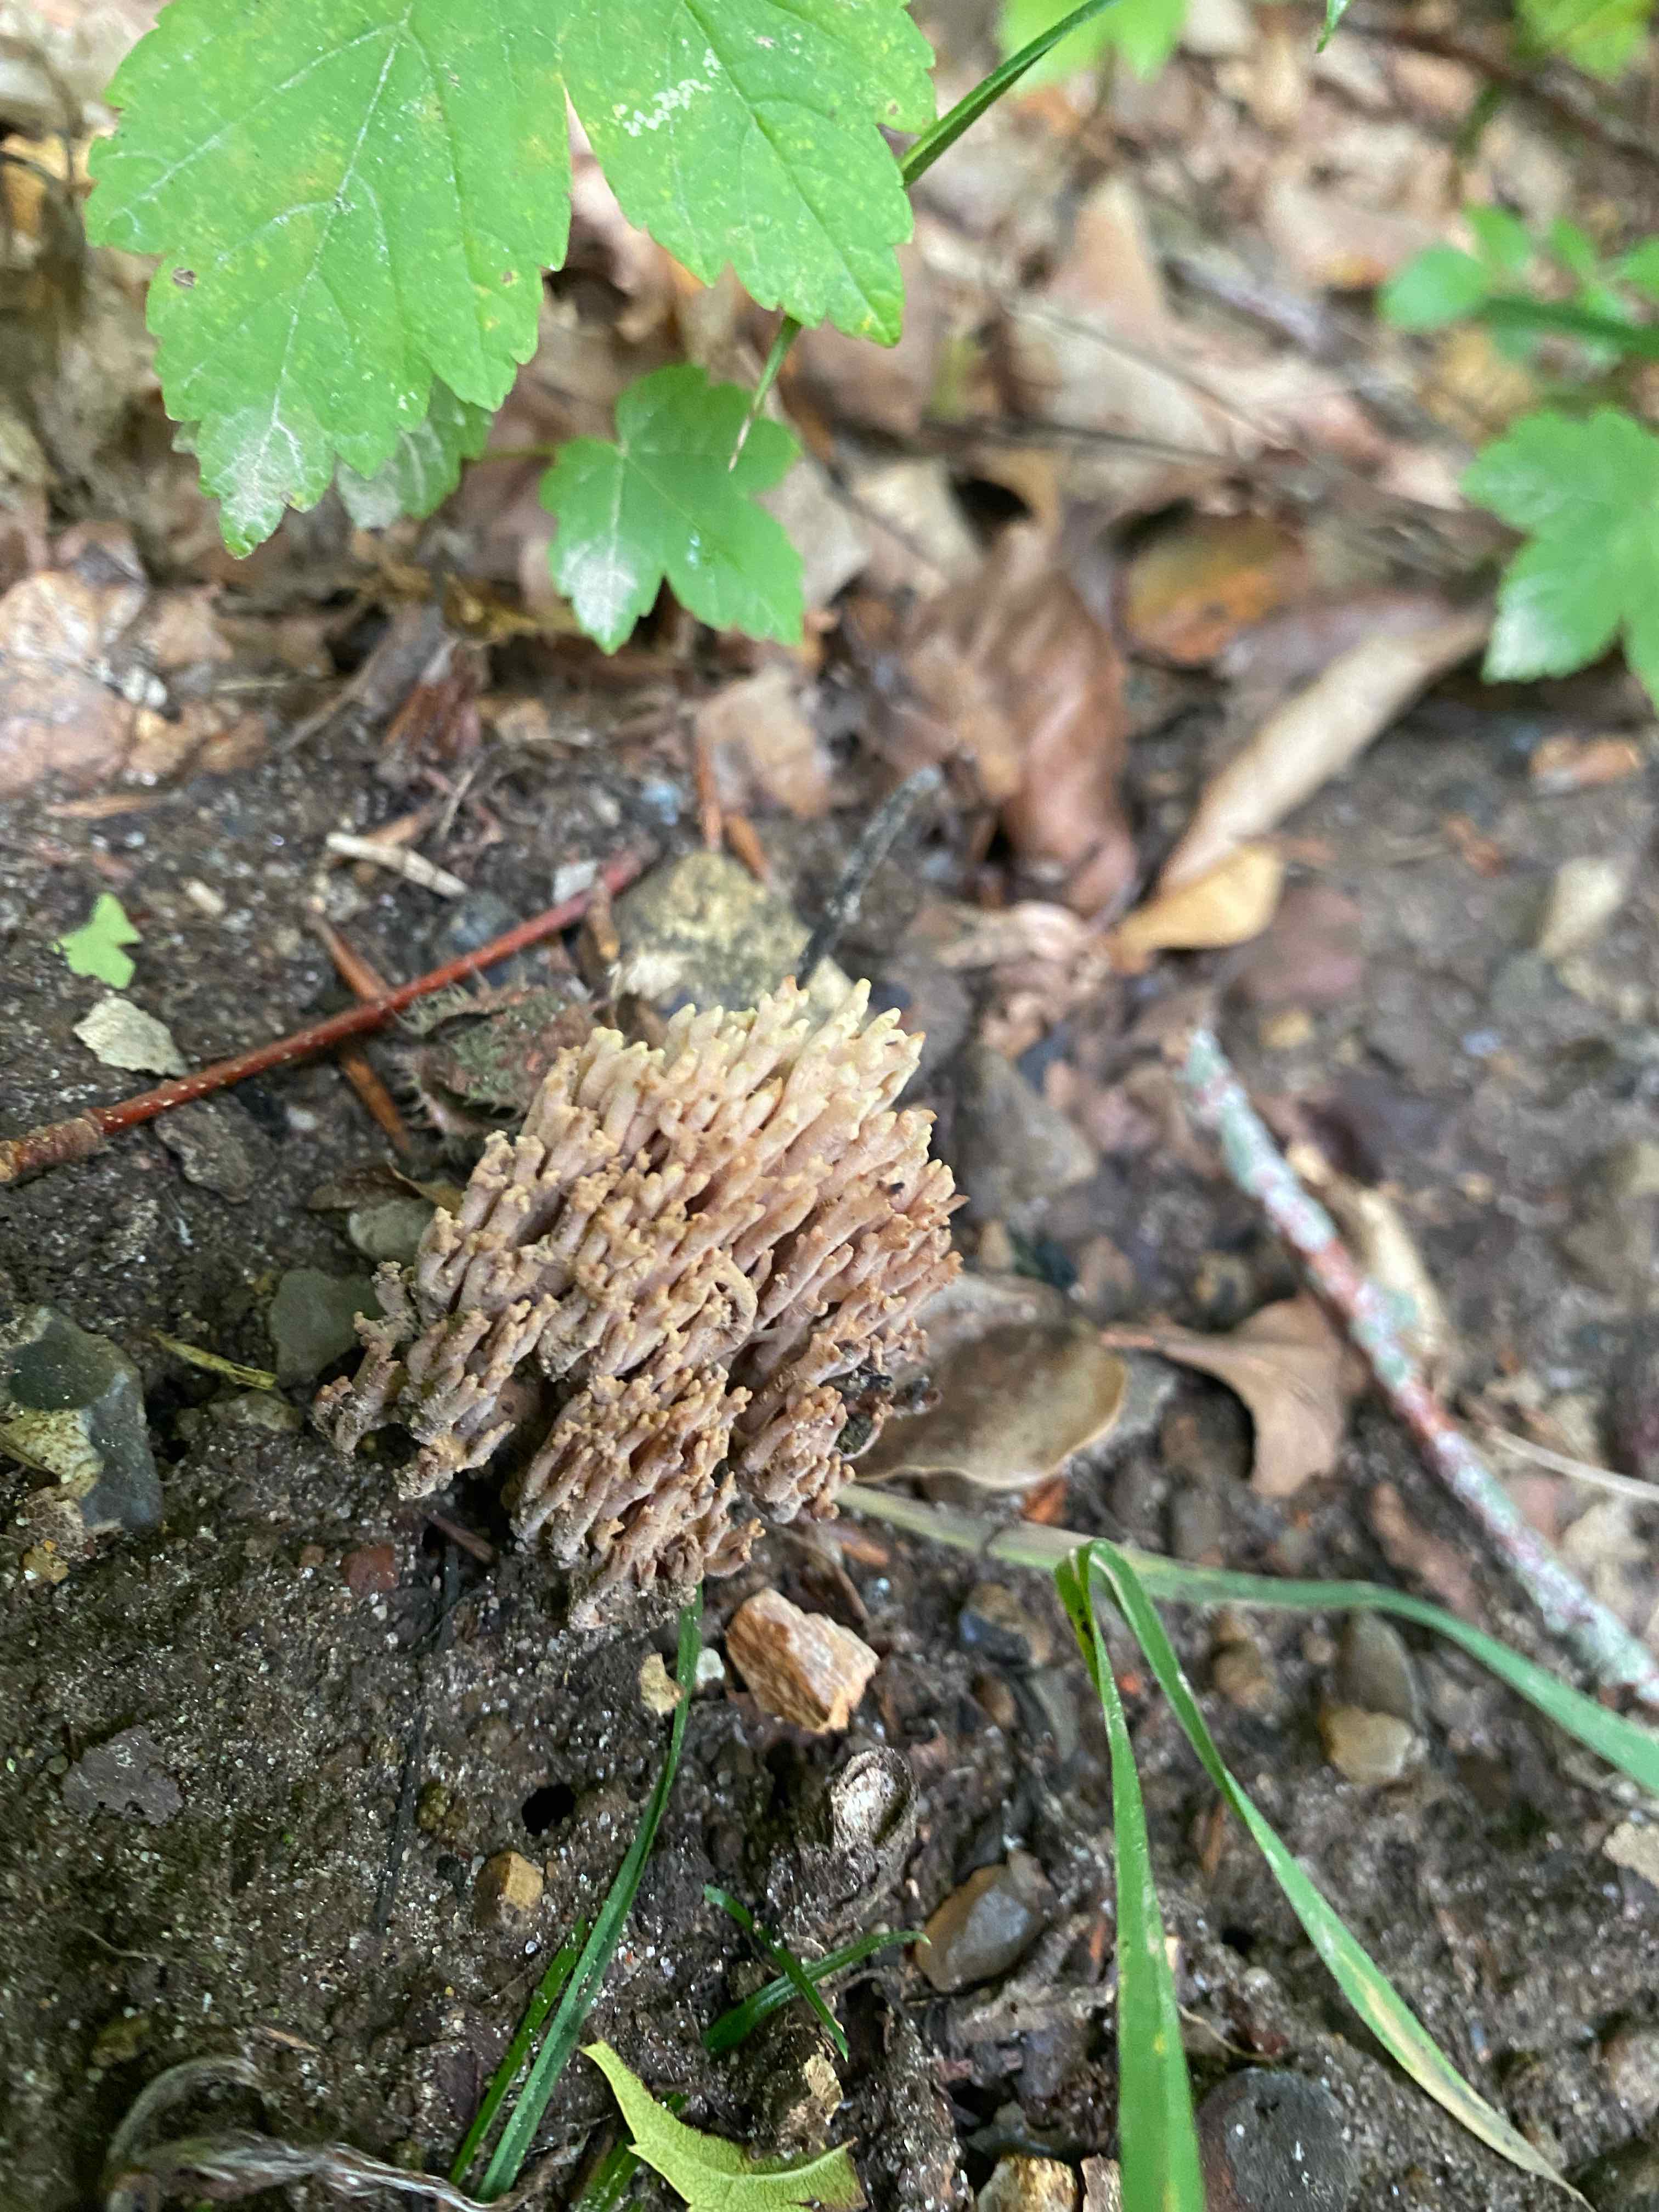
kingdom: Fungi
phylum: Basidiomycota
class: Agaricomycetes
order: Gomphales
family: Gomphaceae
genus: Ramaria
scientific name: Ramaria stricta
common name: rank koralsvamp
